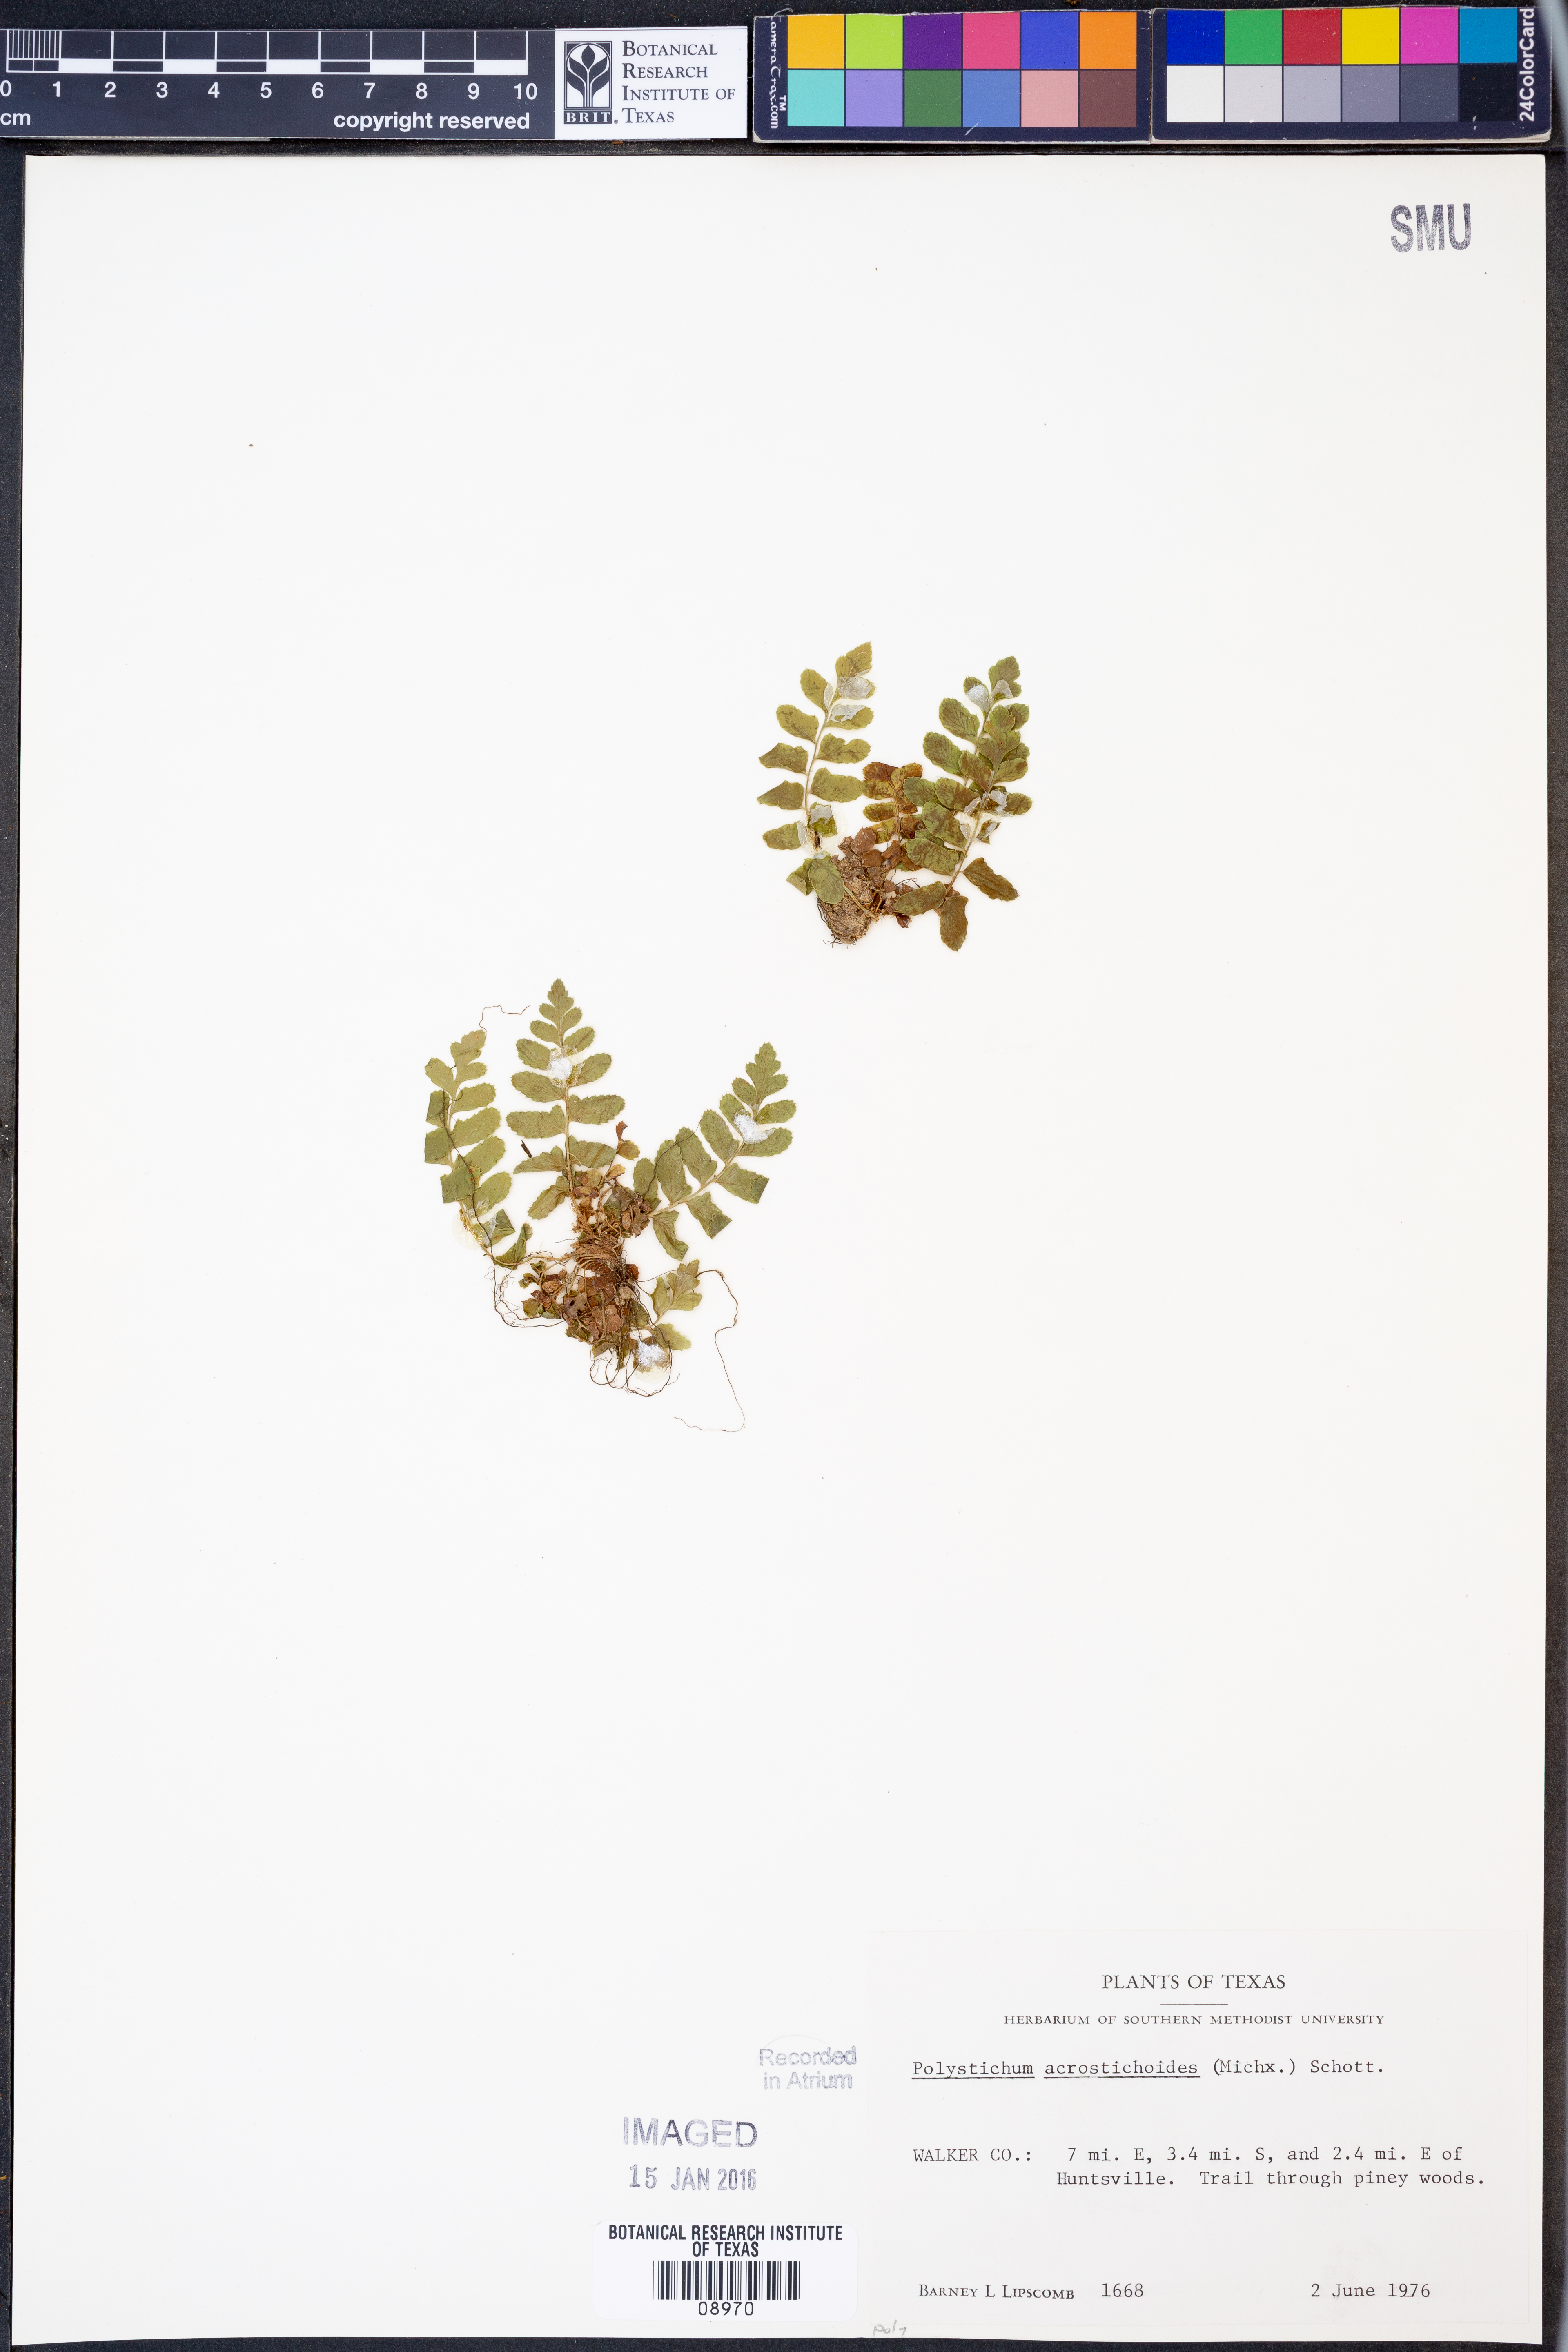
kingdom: Plantae
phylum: Tracheophyta
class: Polypodiopsida
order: Polypodiales
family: Dryopteridaceae
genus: Polystichum
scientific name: Polystichum acrostichoides
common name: Christmas fern
